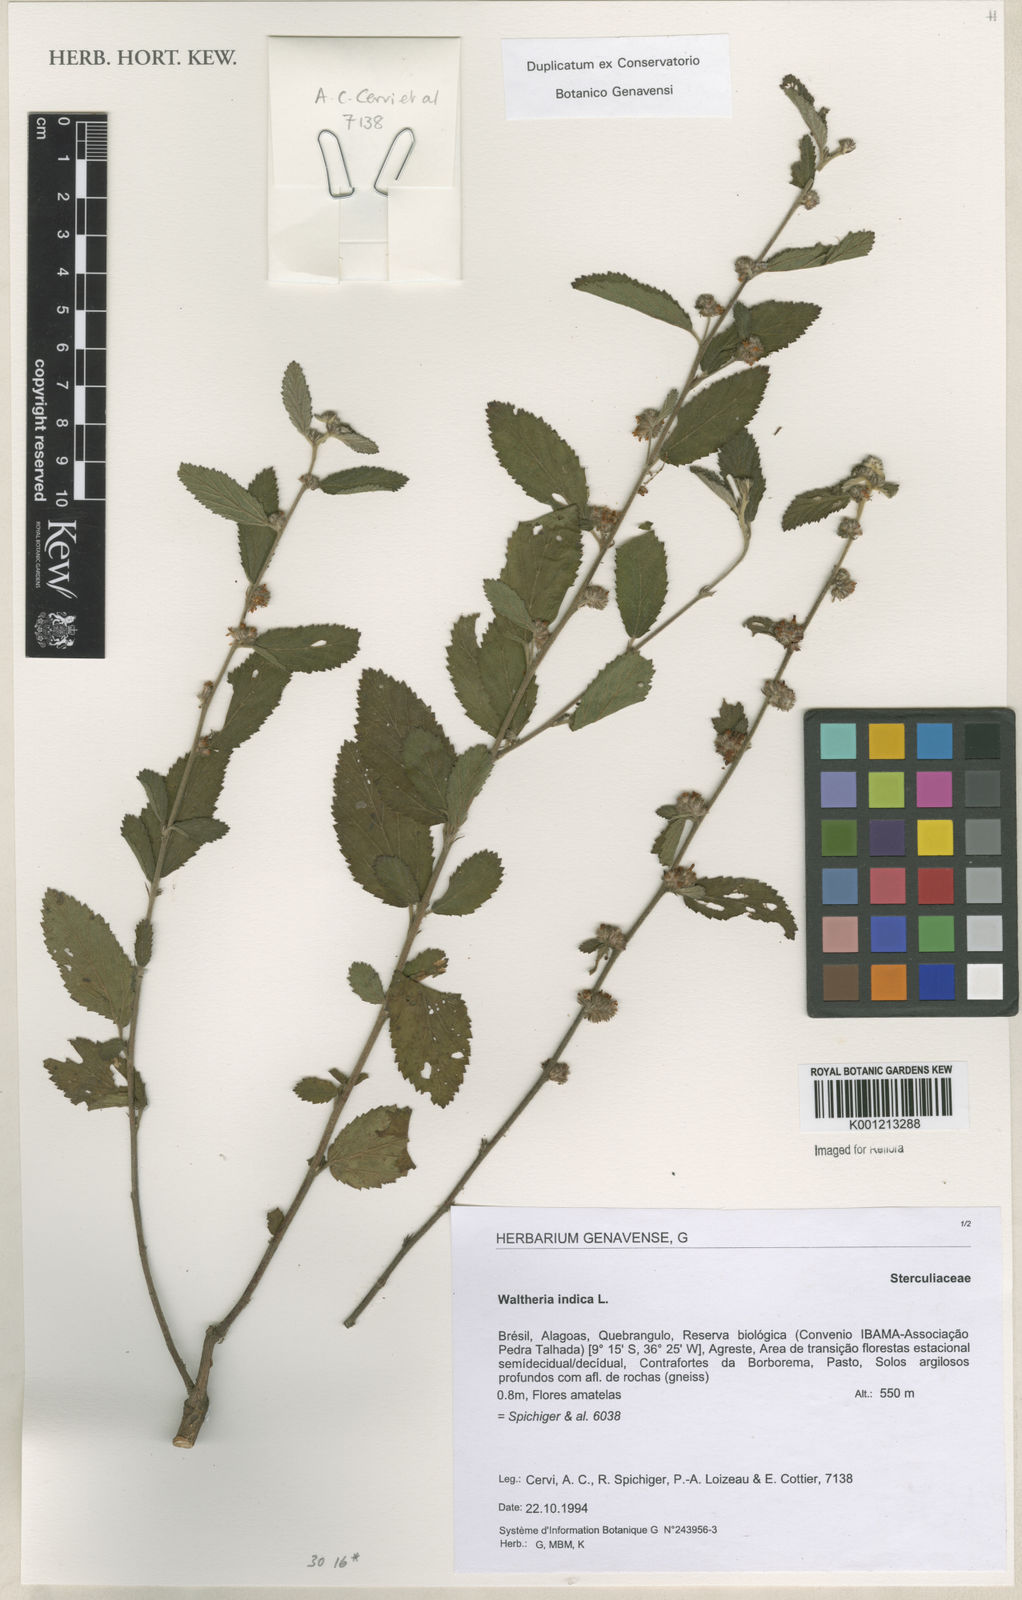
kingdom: Plantae
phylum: Tracheophyta
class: Magnoliopsida
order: Malvales
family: Malvaceae
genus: Waltheria
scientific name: Waltheria indica
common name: Leather-coat
